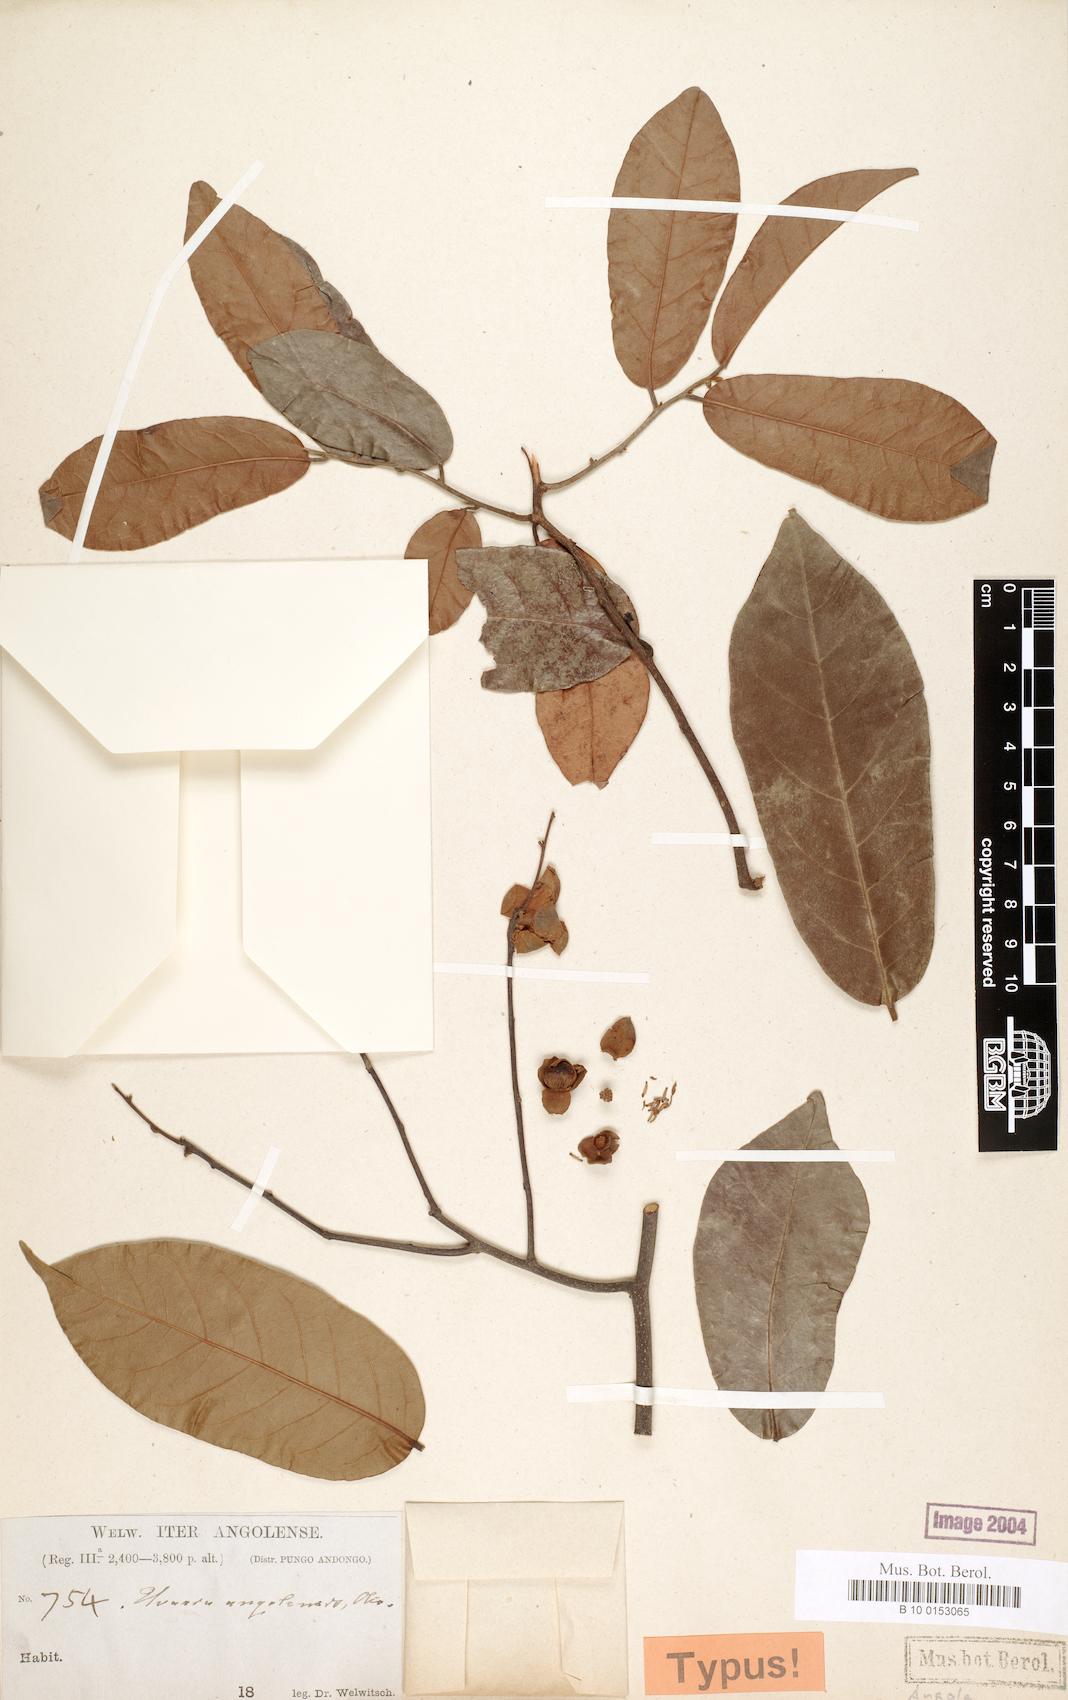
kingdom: Plantae
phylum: Tracheophyta
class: Magnoliopsida
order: Magnoliales
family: Annonaceae
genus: Uvaria
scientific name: Uvaria angolensis
